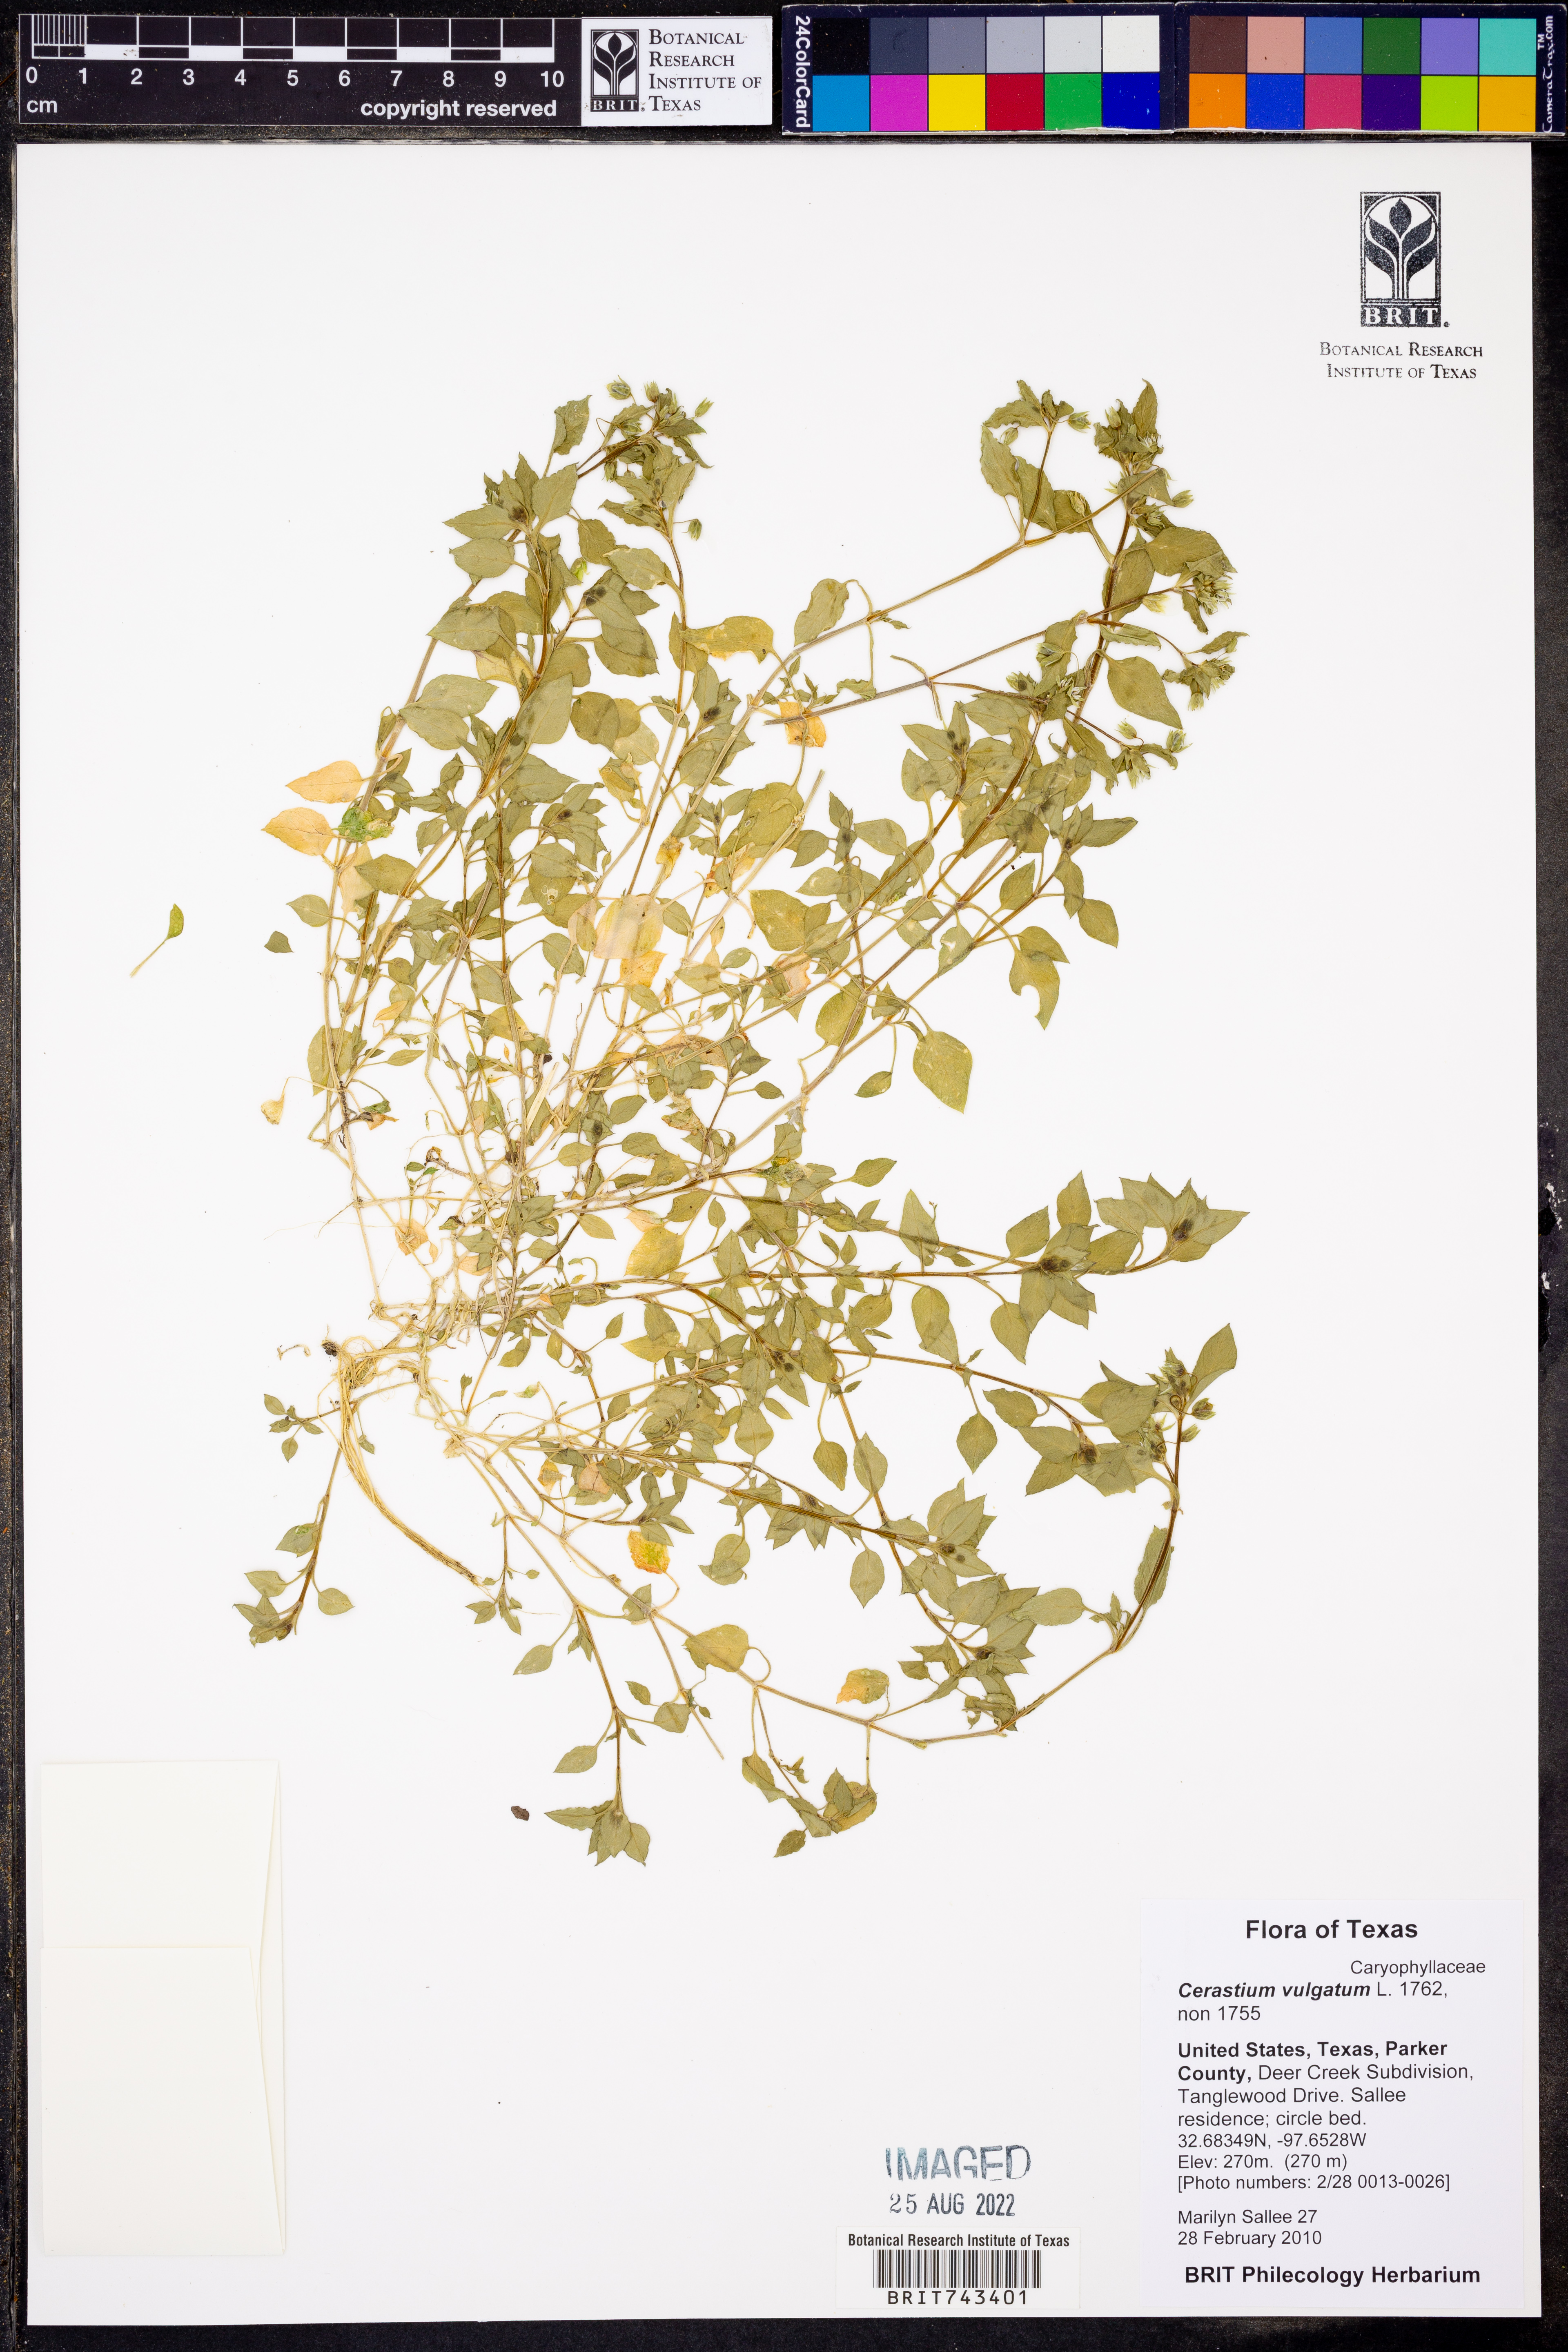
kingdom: Plantae
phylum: Tracheophyta
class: Magnoliopsida
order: Caryophyllales
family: Caryophyllaceae
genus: Cerastium
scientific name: Cerastium
